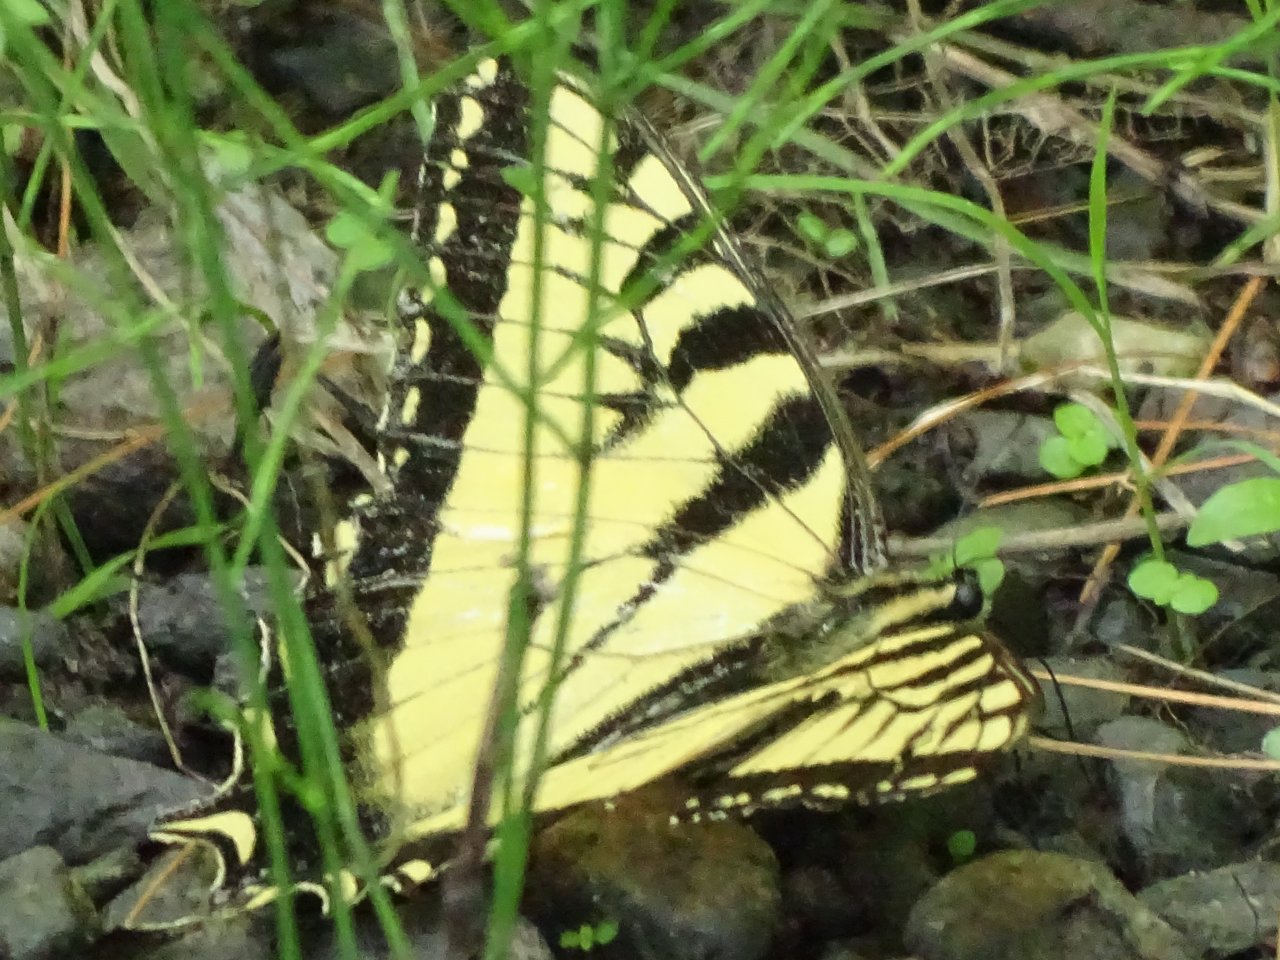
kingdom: Animalia
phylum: Arthropoda
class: Insecta
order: Lepidoptera
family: Papilionidae
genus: Pterourus
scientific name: Pterourus
